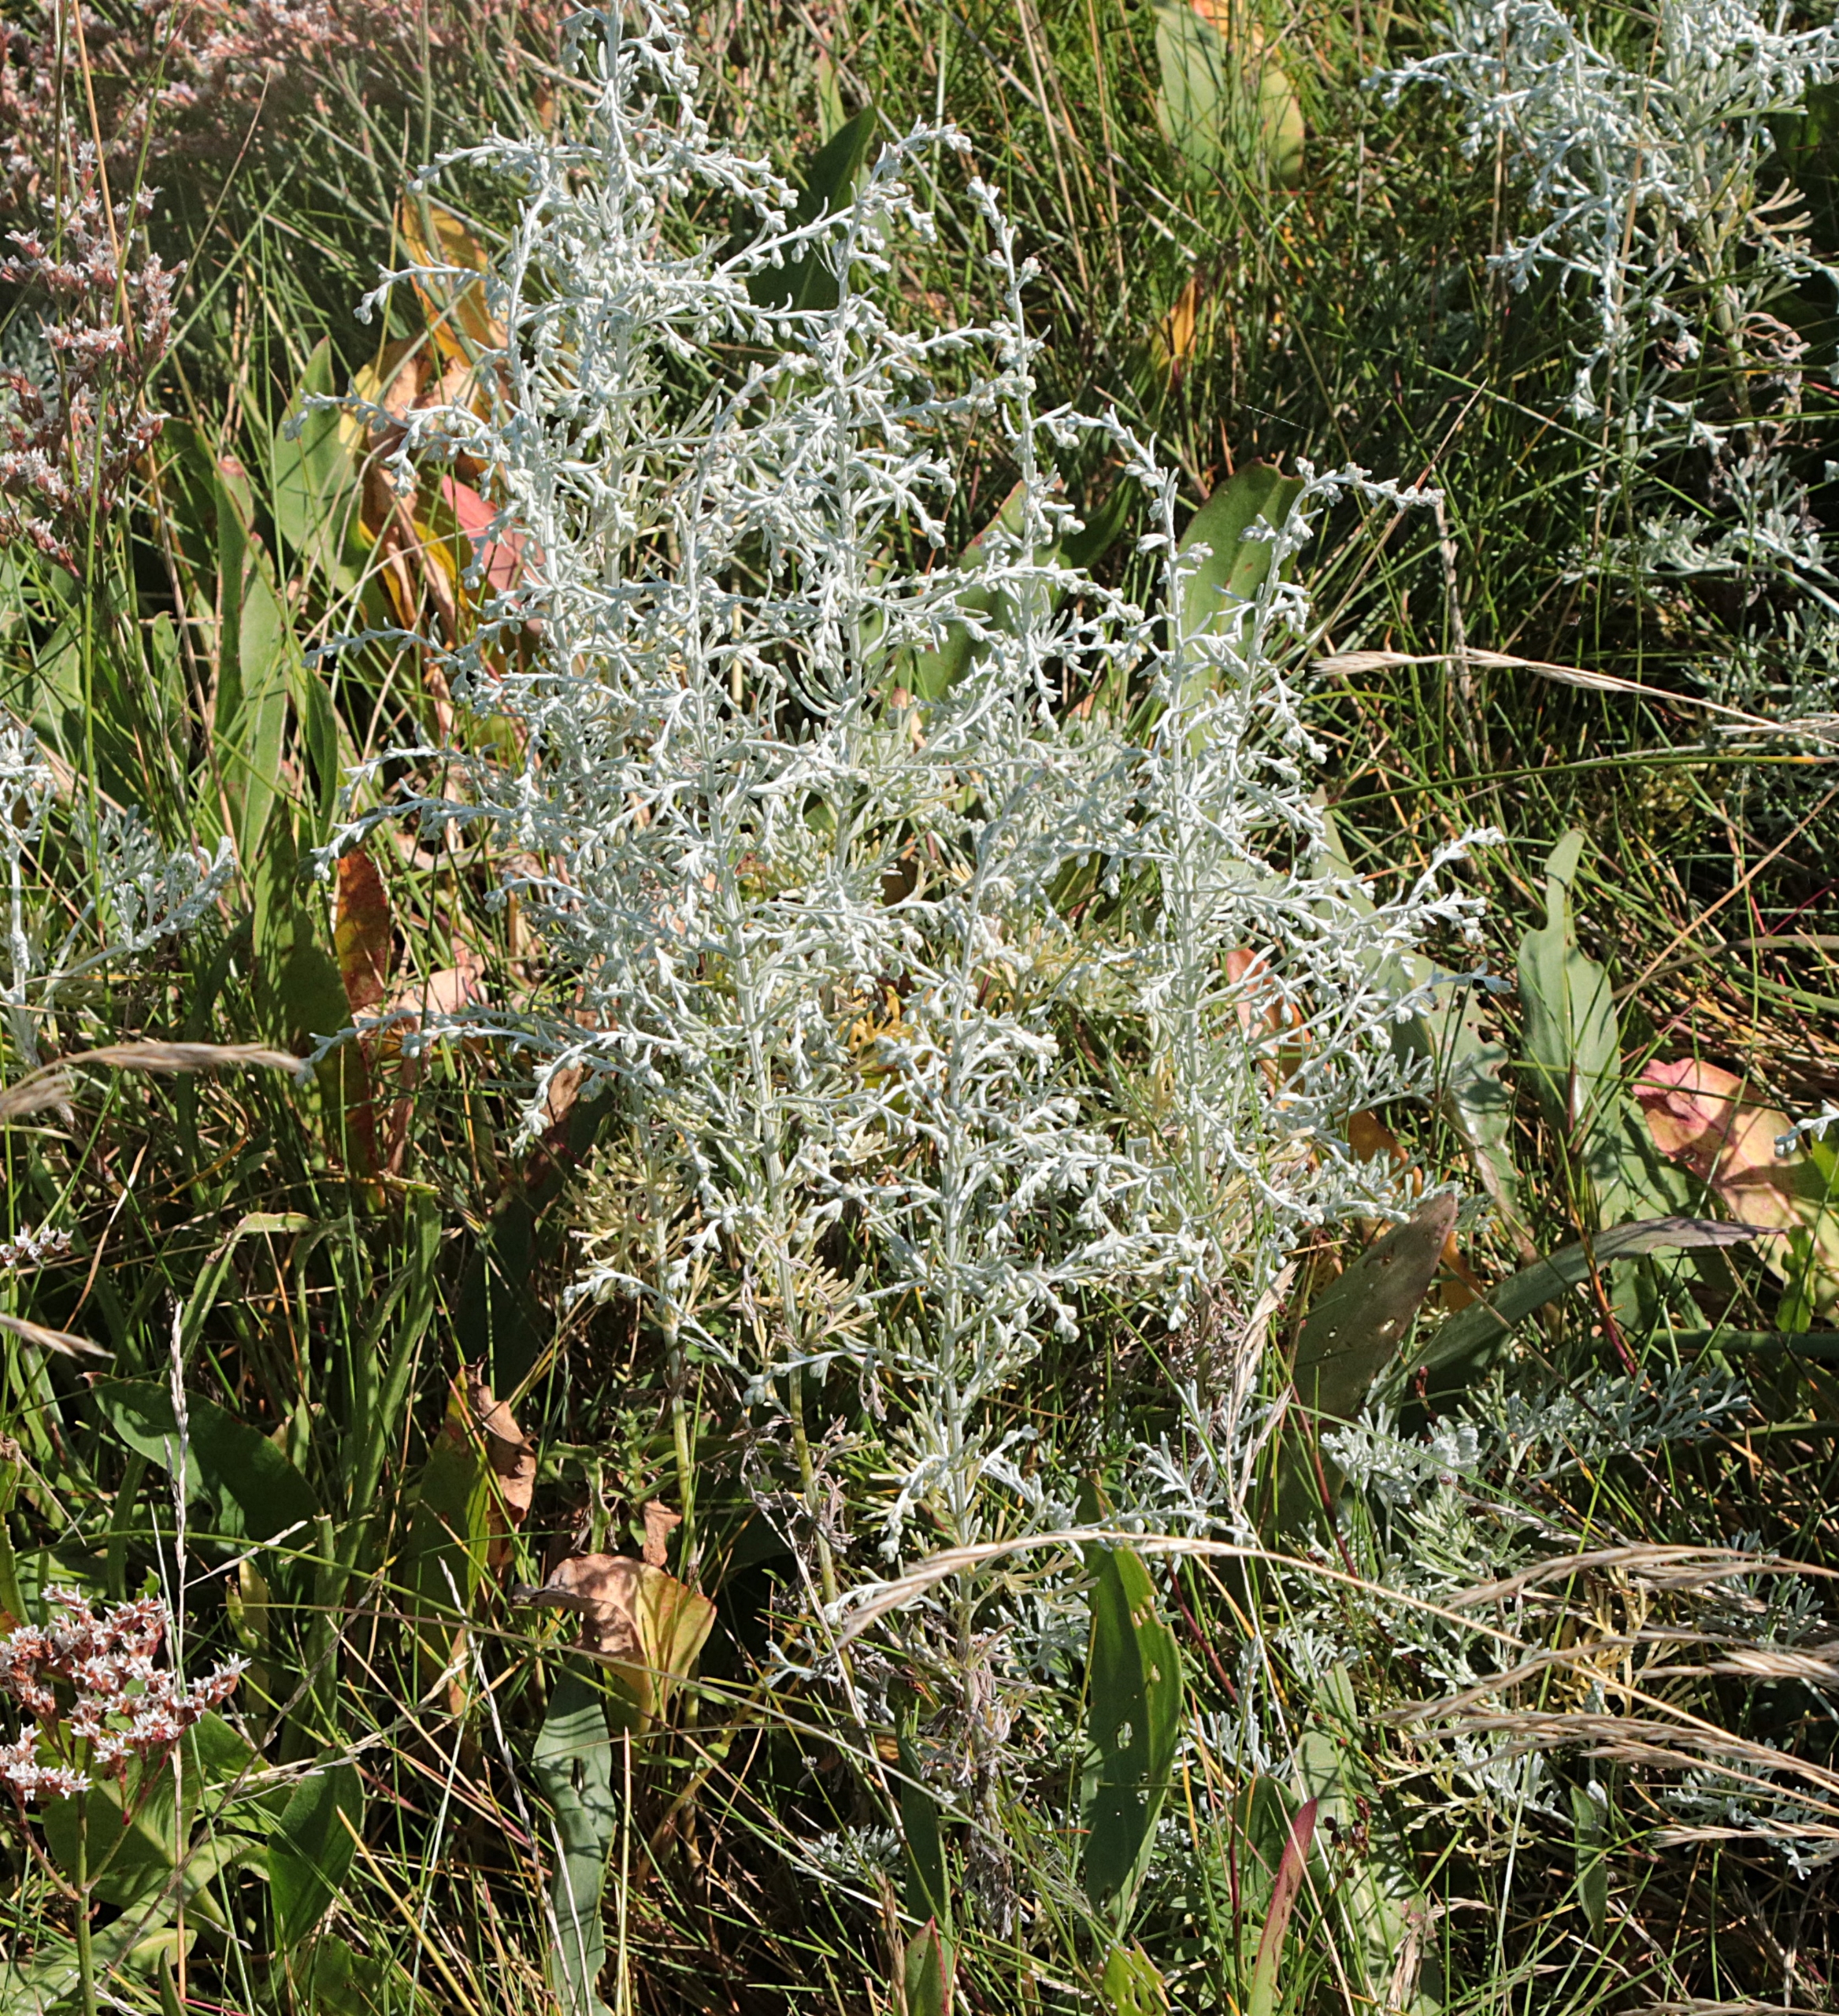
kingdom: Plantae
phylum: Tracheophyta
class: Magnoliopsida
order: Asterales
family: Asteraceae
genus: Artemisia
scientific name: Artemisia maritima
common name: Strandmalurt
